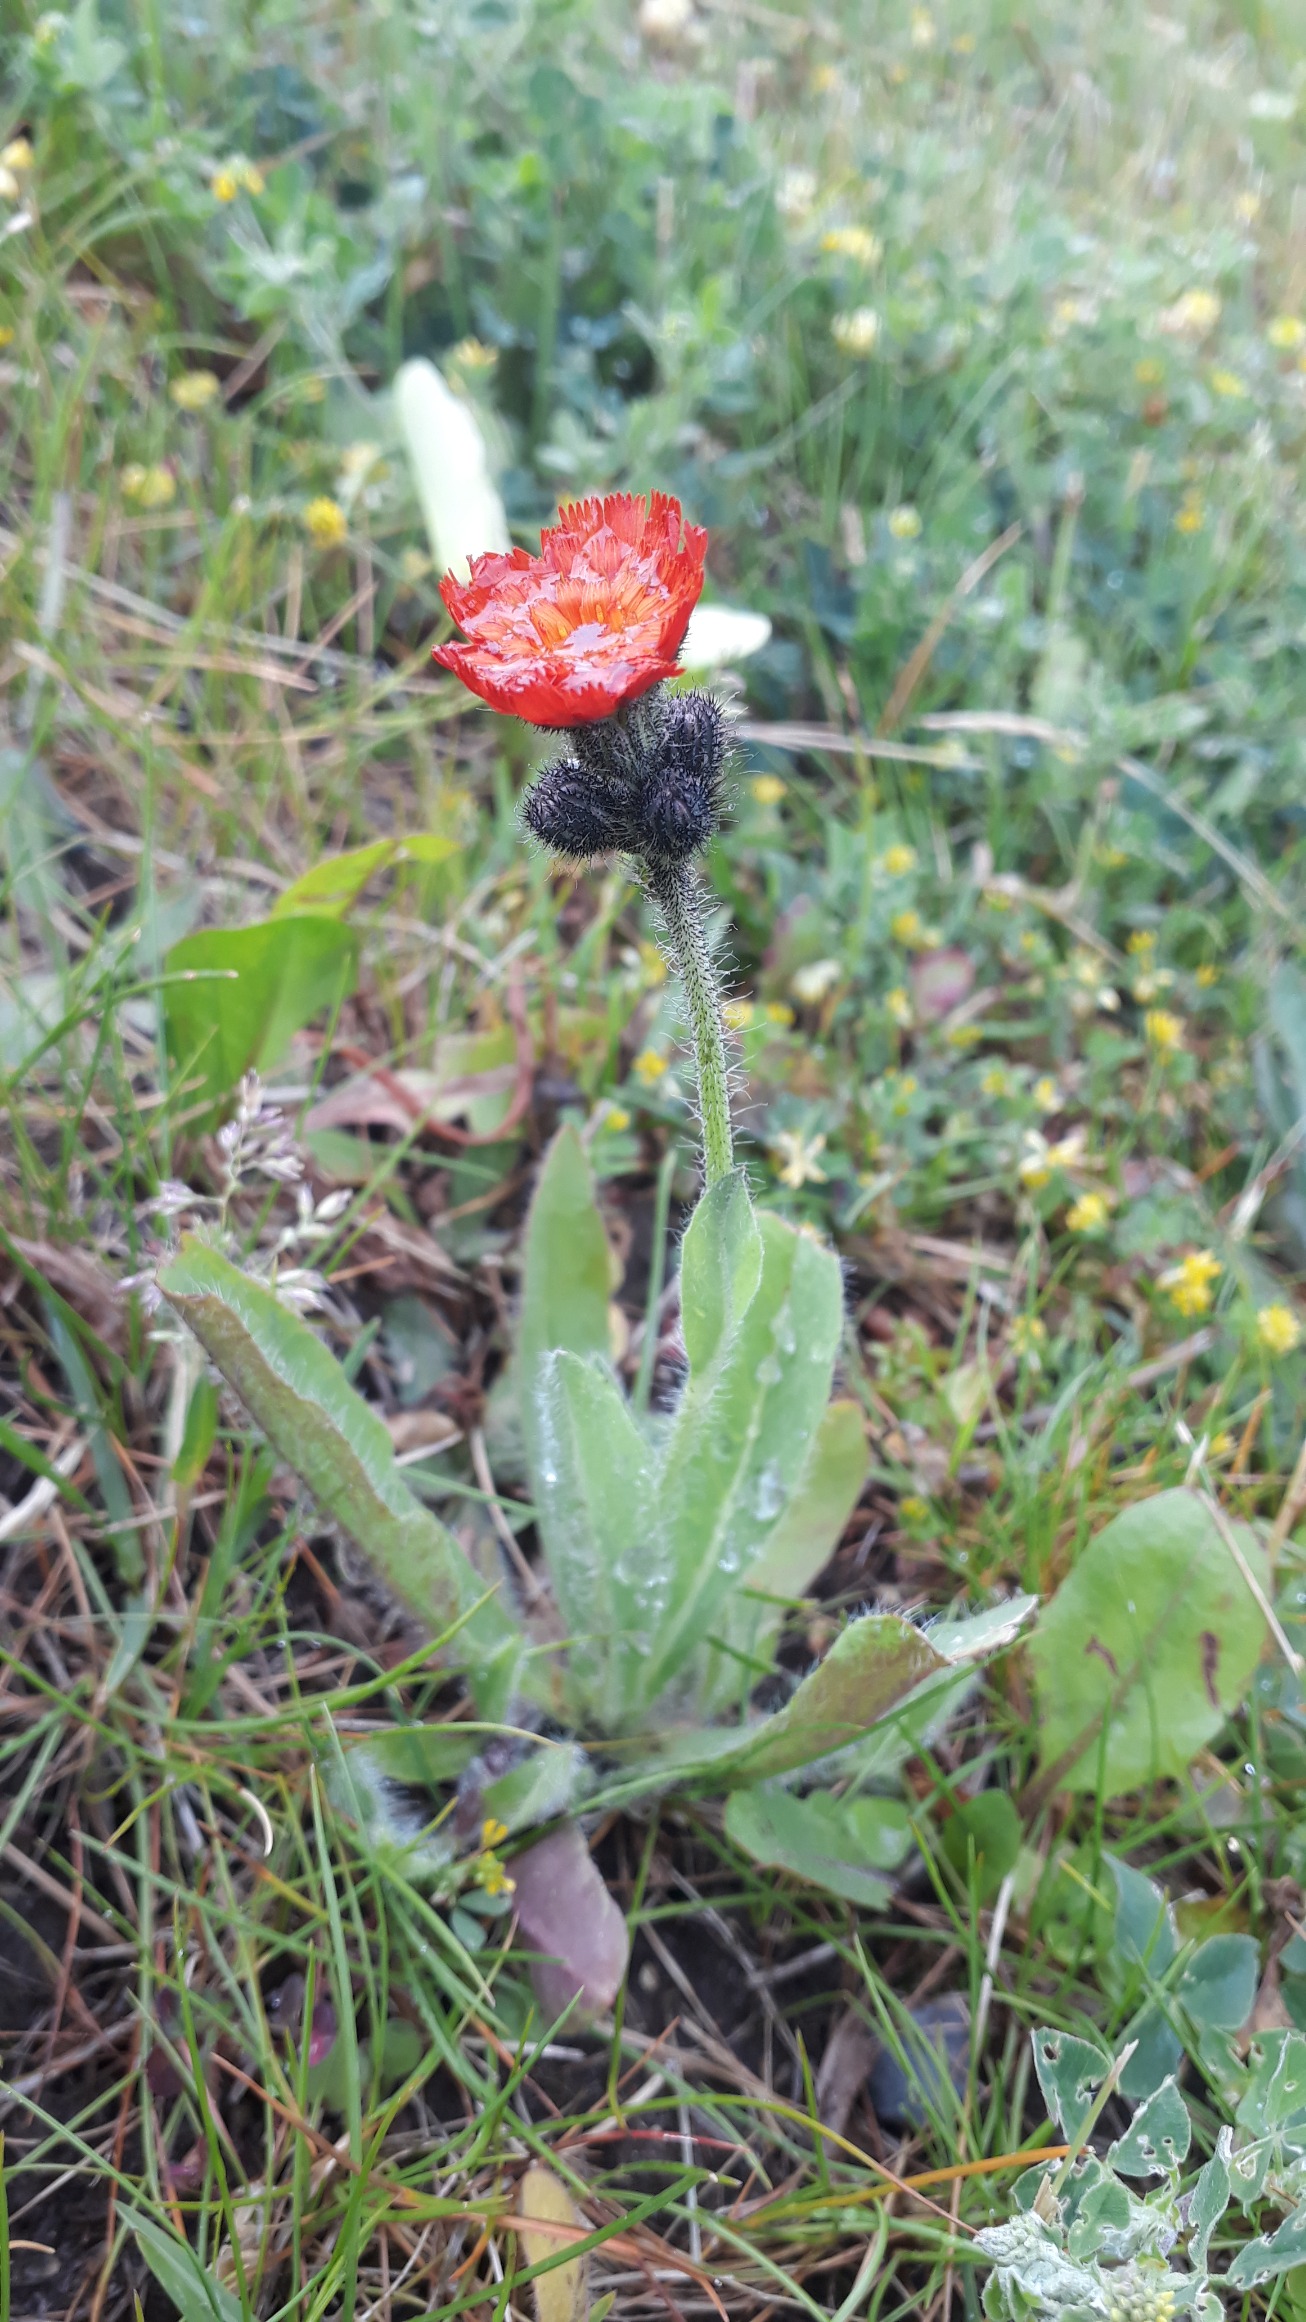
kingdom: Plantae
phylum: Tracheophyta
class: Magnoliopsida
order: Asterales
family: Asteraceae
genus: Pilosella
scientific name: Pilosella aurantiaca
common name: Pomerans-høgeurt
